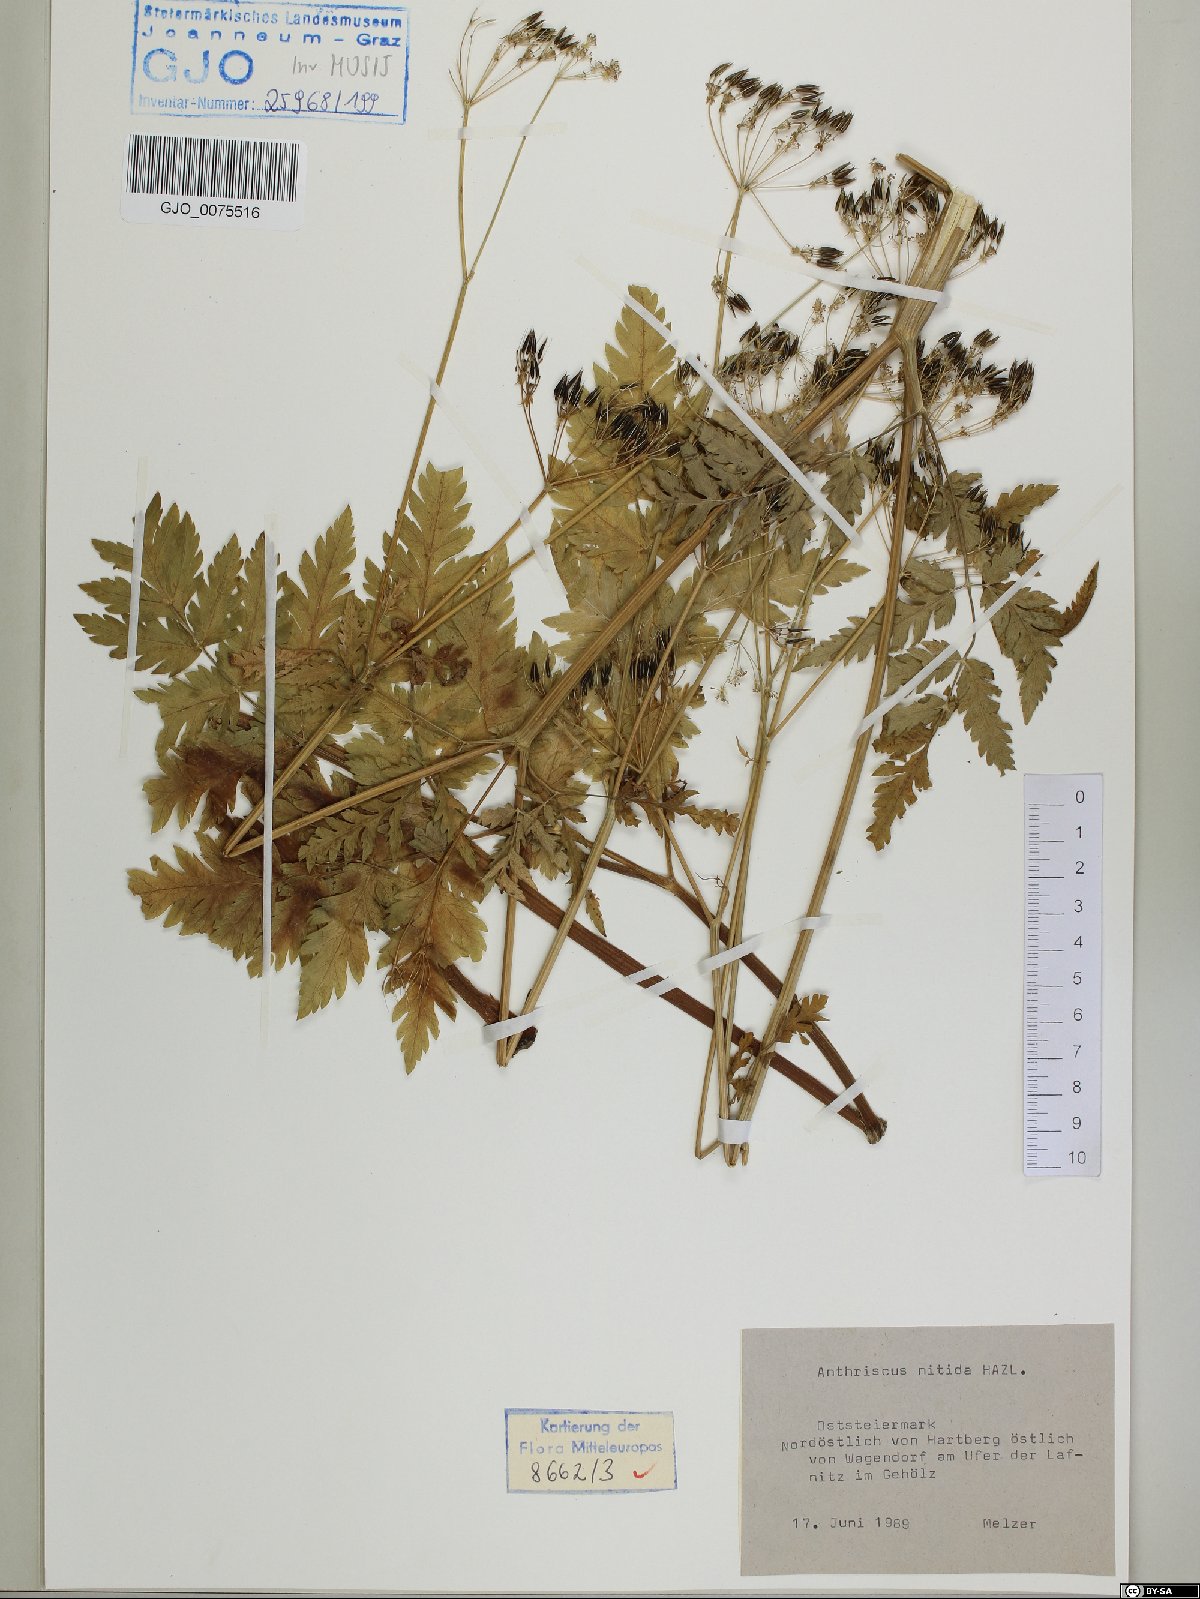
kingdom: Plantae
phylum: Tracheophyta
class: Magnoliopsida
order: Apiales
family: Apiaceae
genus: Anthriscus
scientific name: Anthriscus nitida
